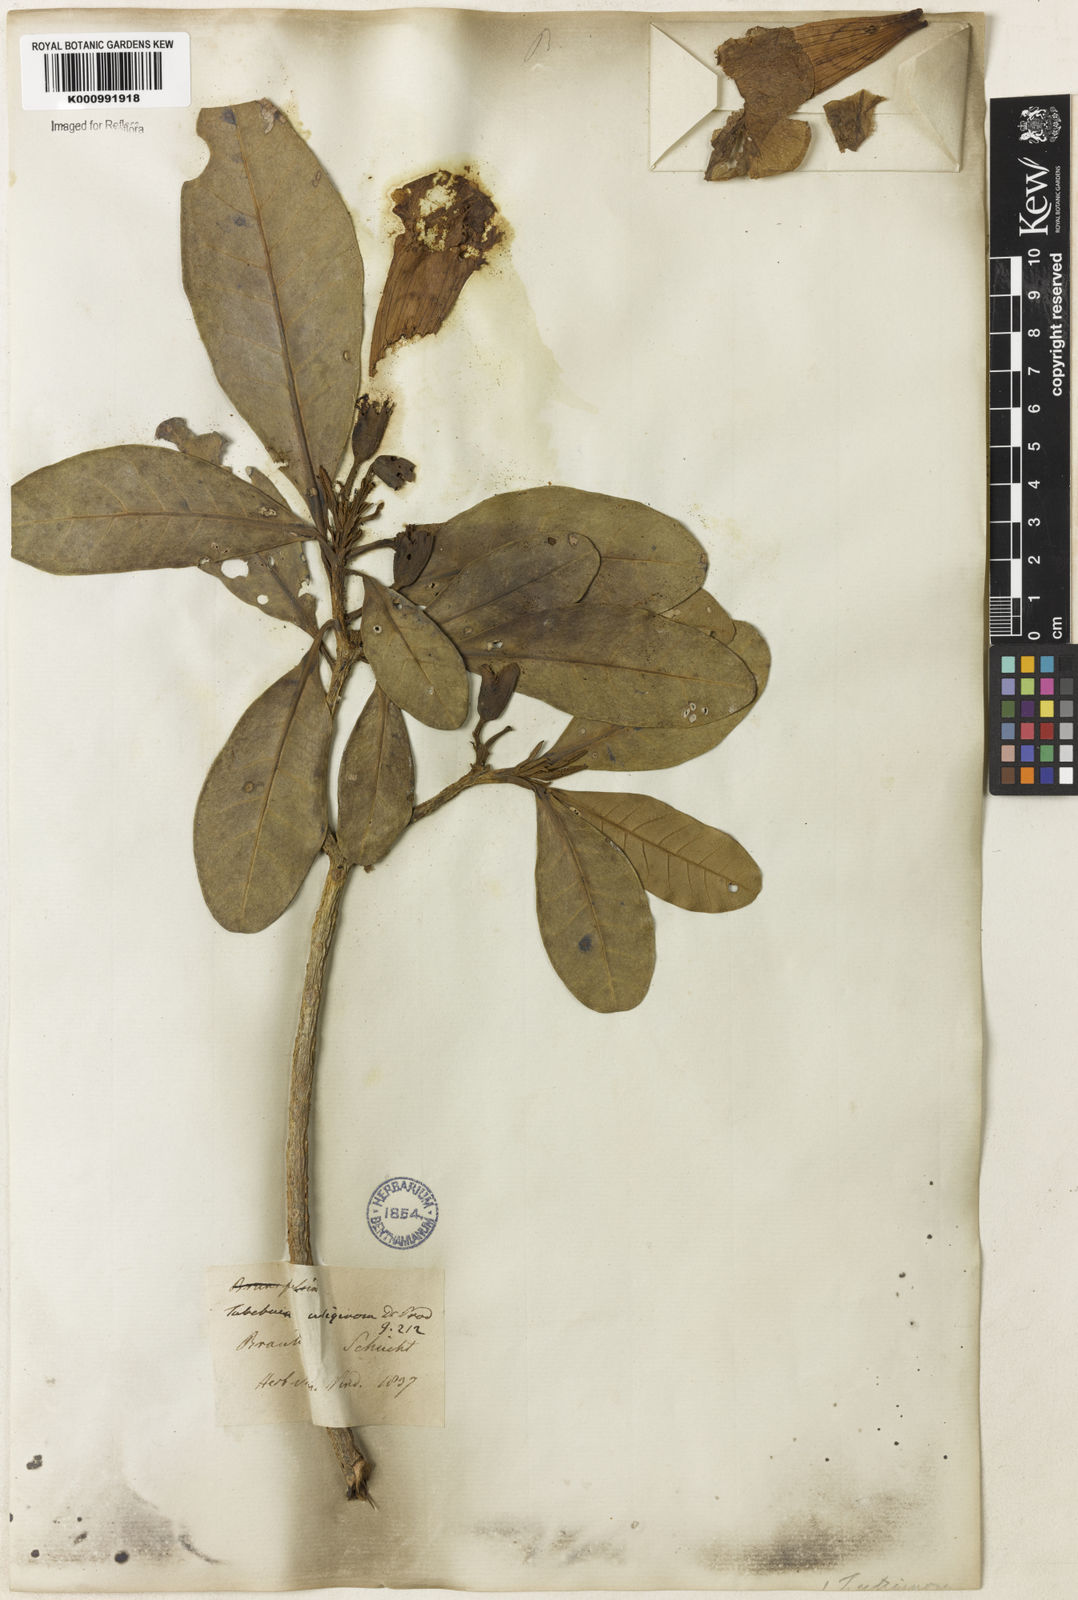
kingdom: Plantae
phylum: Tracheophyta
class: Magnoliopsida
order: Lamiales
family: Bignoniaceae
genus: Tabebuia
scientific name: Tabebuia cassinoides
